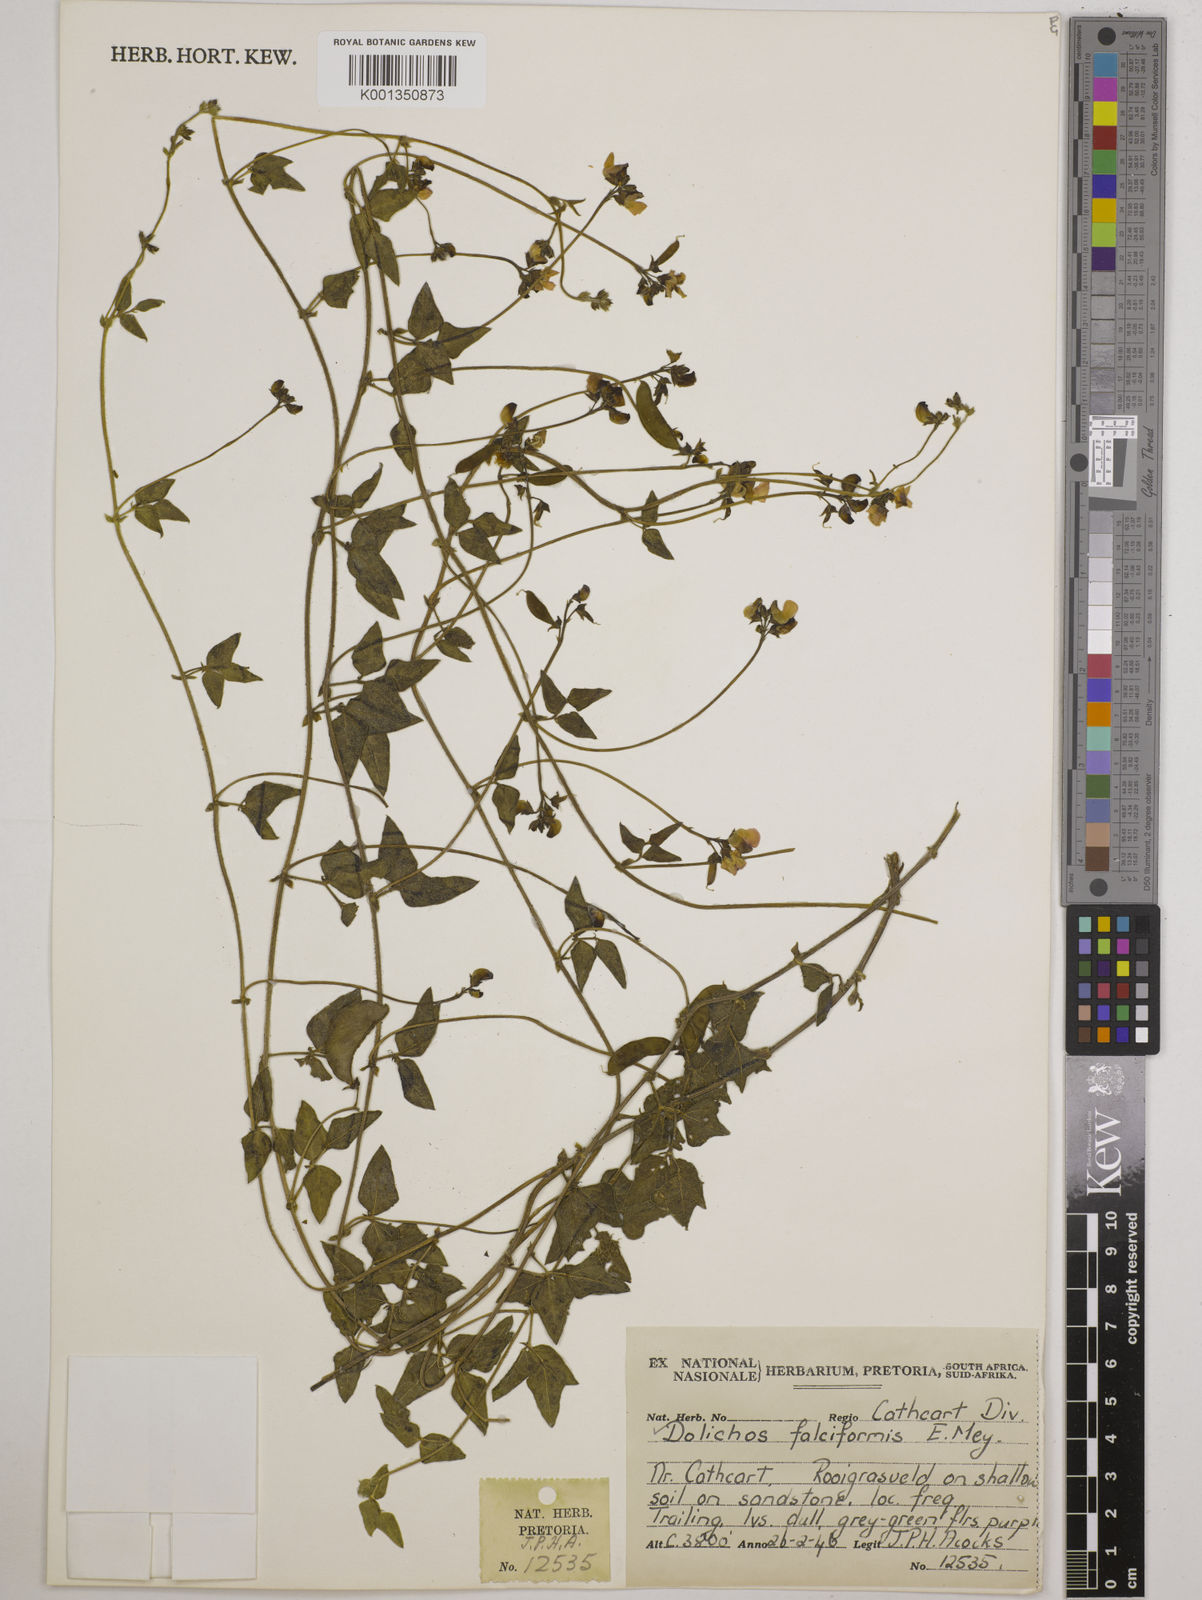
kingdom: Plantae
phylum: Tracheophyta
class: Magnoliopsida
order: Fabales
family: Fabaceae
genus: Dolichos
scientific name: Dolichos falciformis
